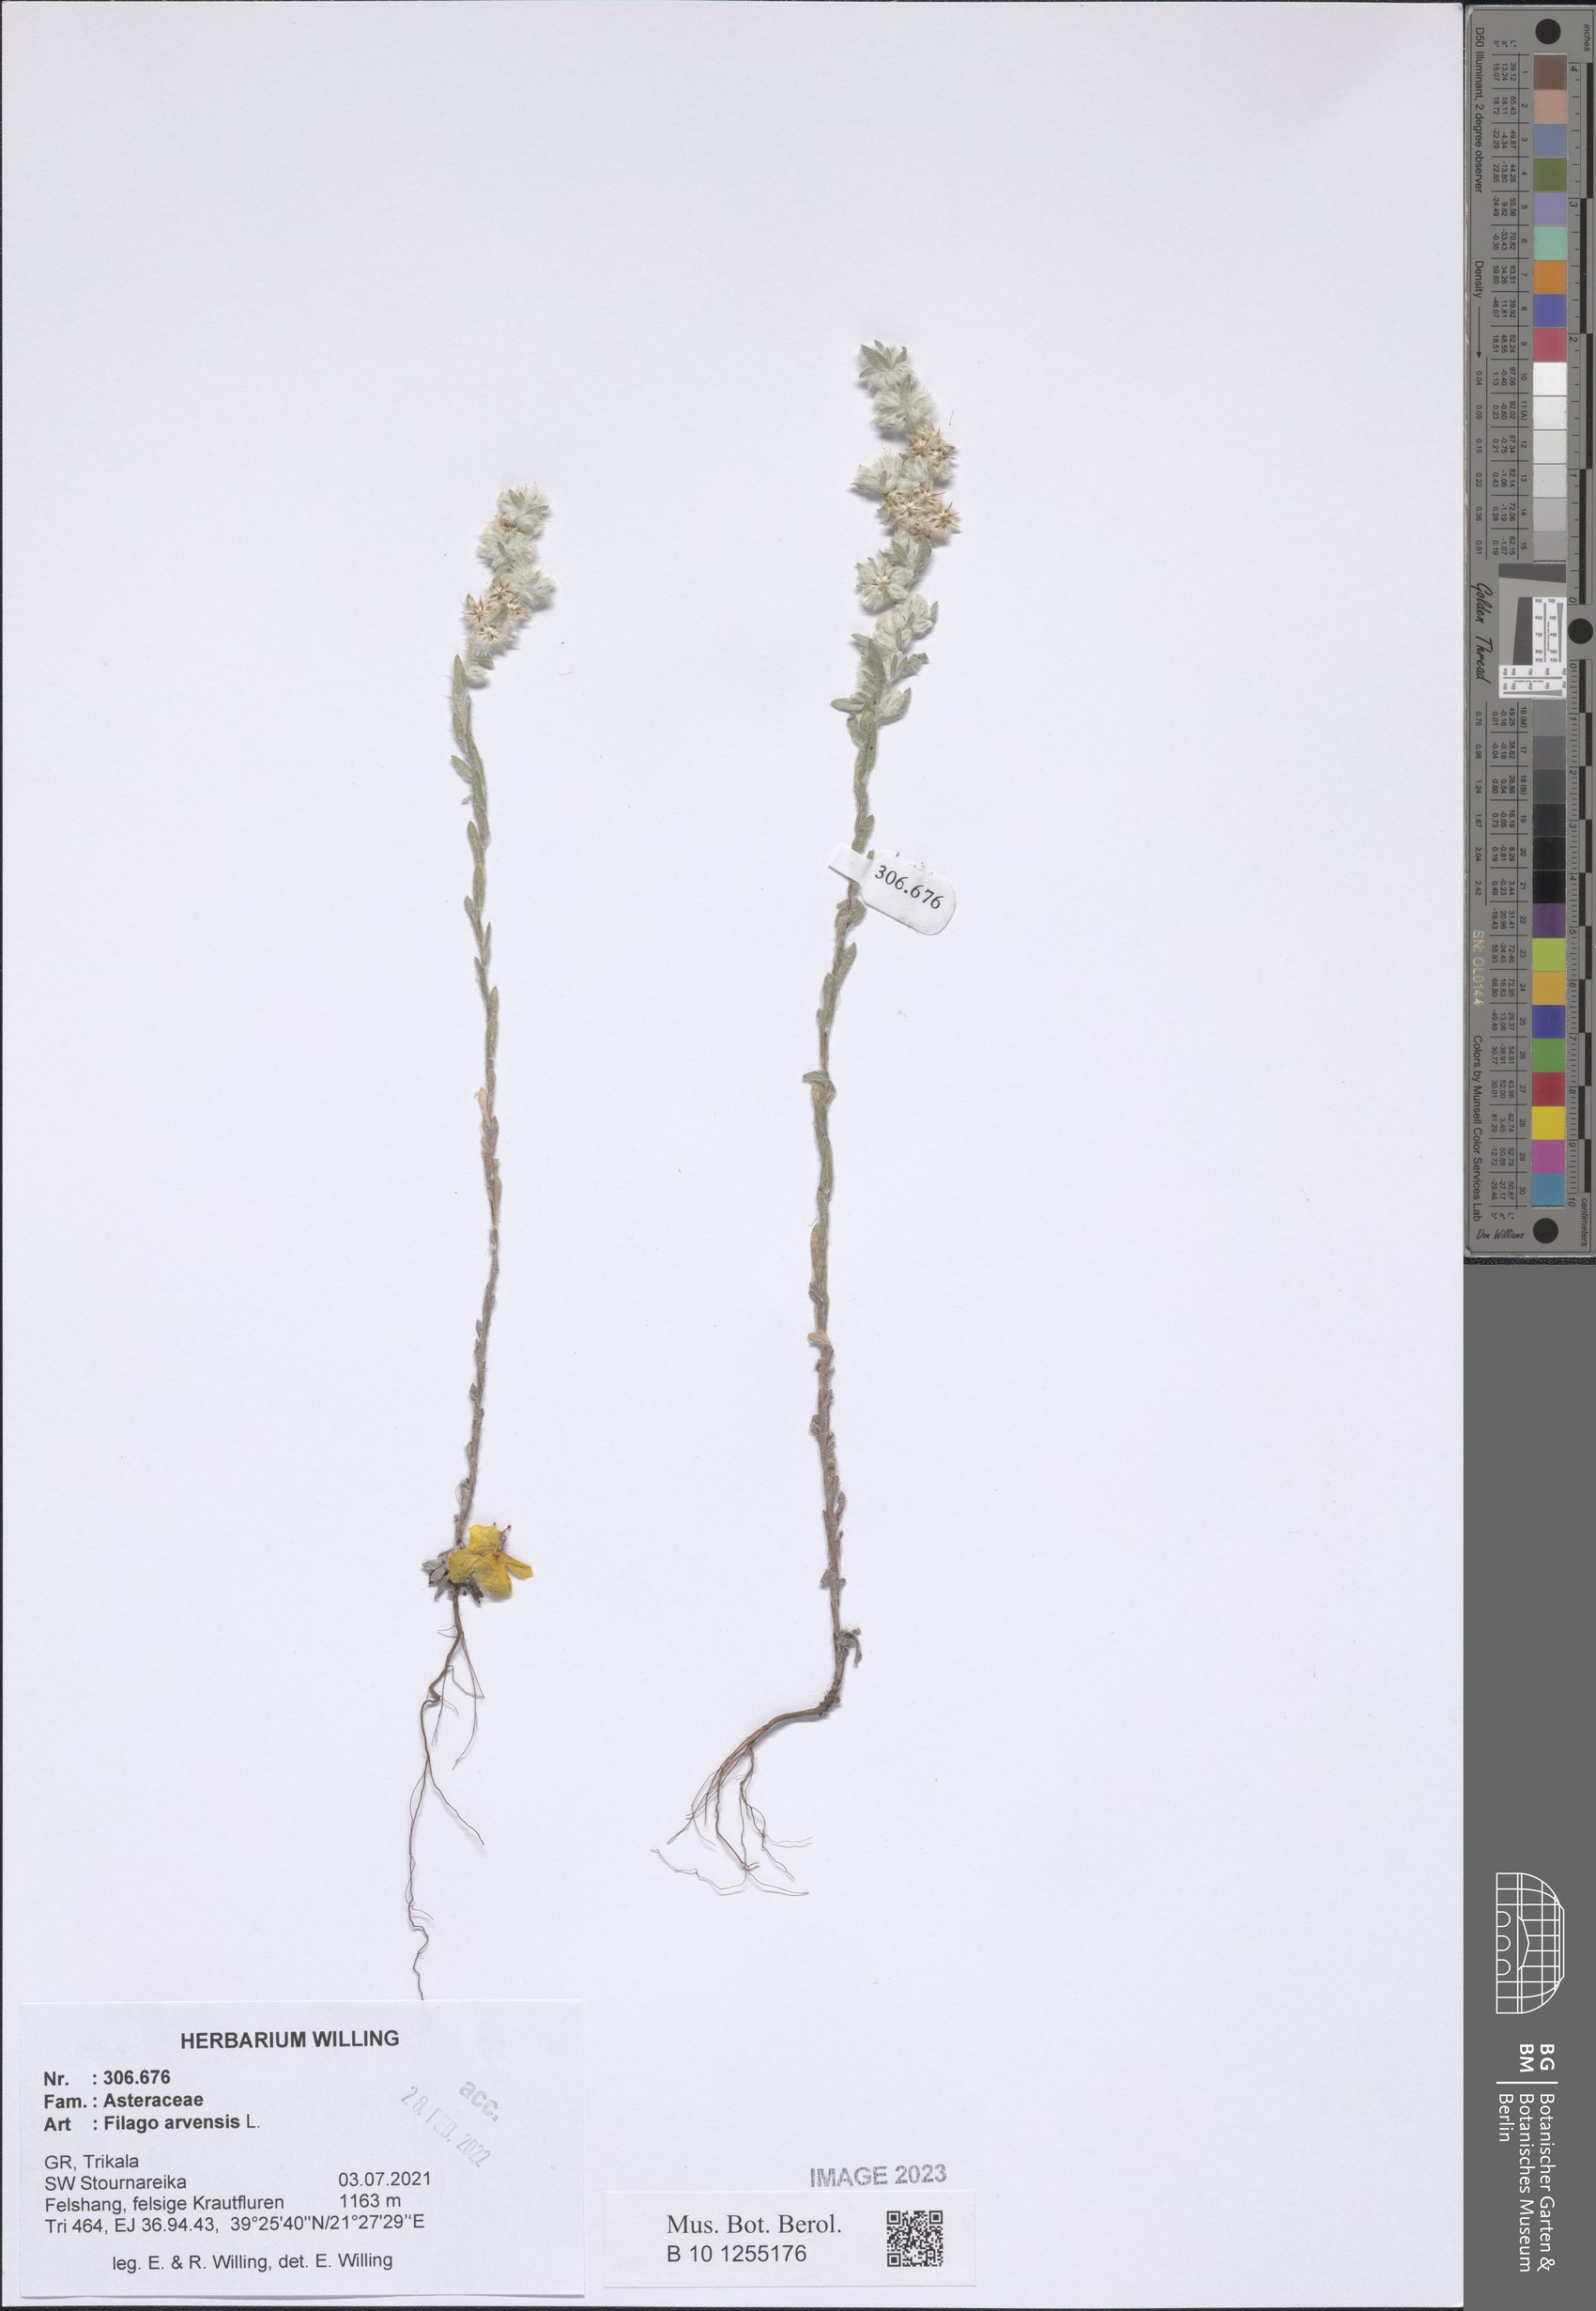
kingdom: Plantae
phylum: Tracheophyta
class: Magnoliopsida
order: Asterales
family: Asteraceae
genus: Filago
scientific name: Filago arvensis
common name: Field cudweed
